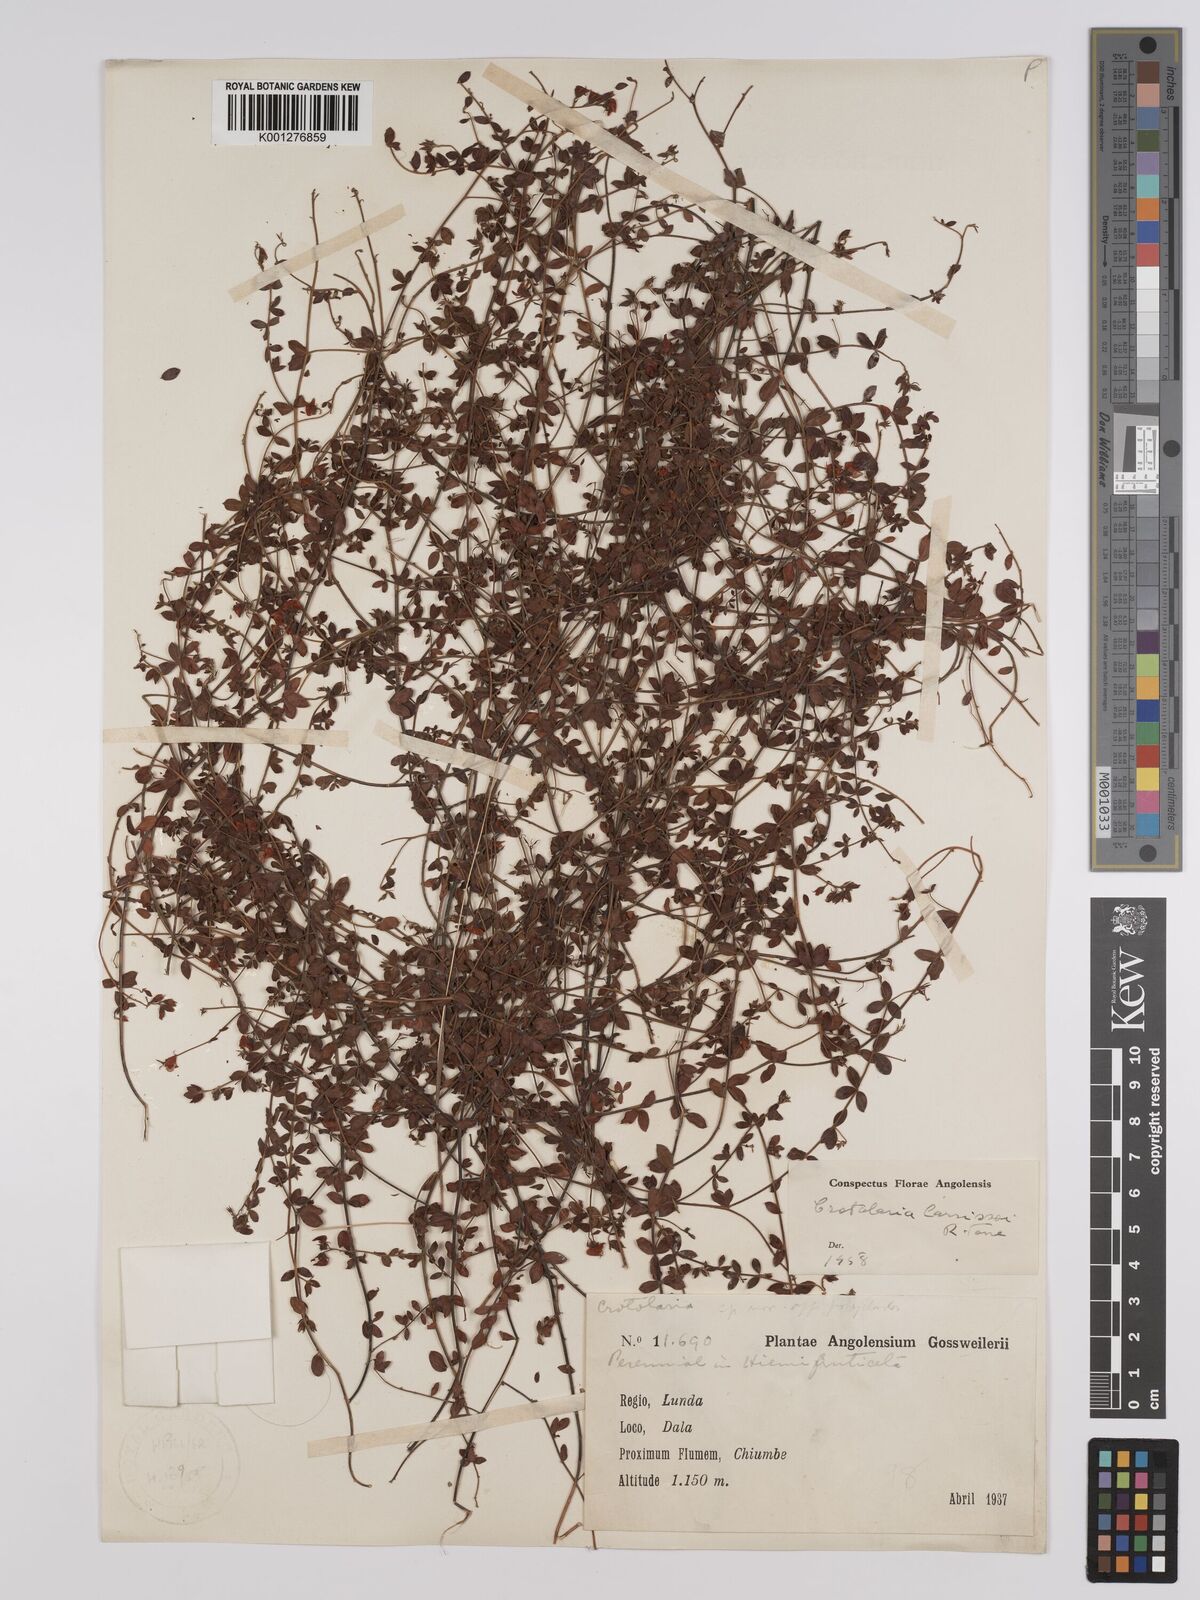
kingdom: Plantae
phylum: Tracheophyta
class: Magnoliopsida
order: Fabales
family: Fabaceae
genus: Crotalaria
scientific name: Crotalaria carrissoana
